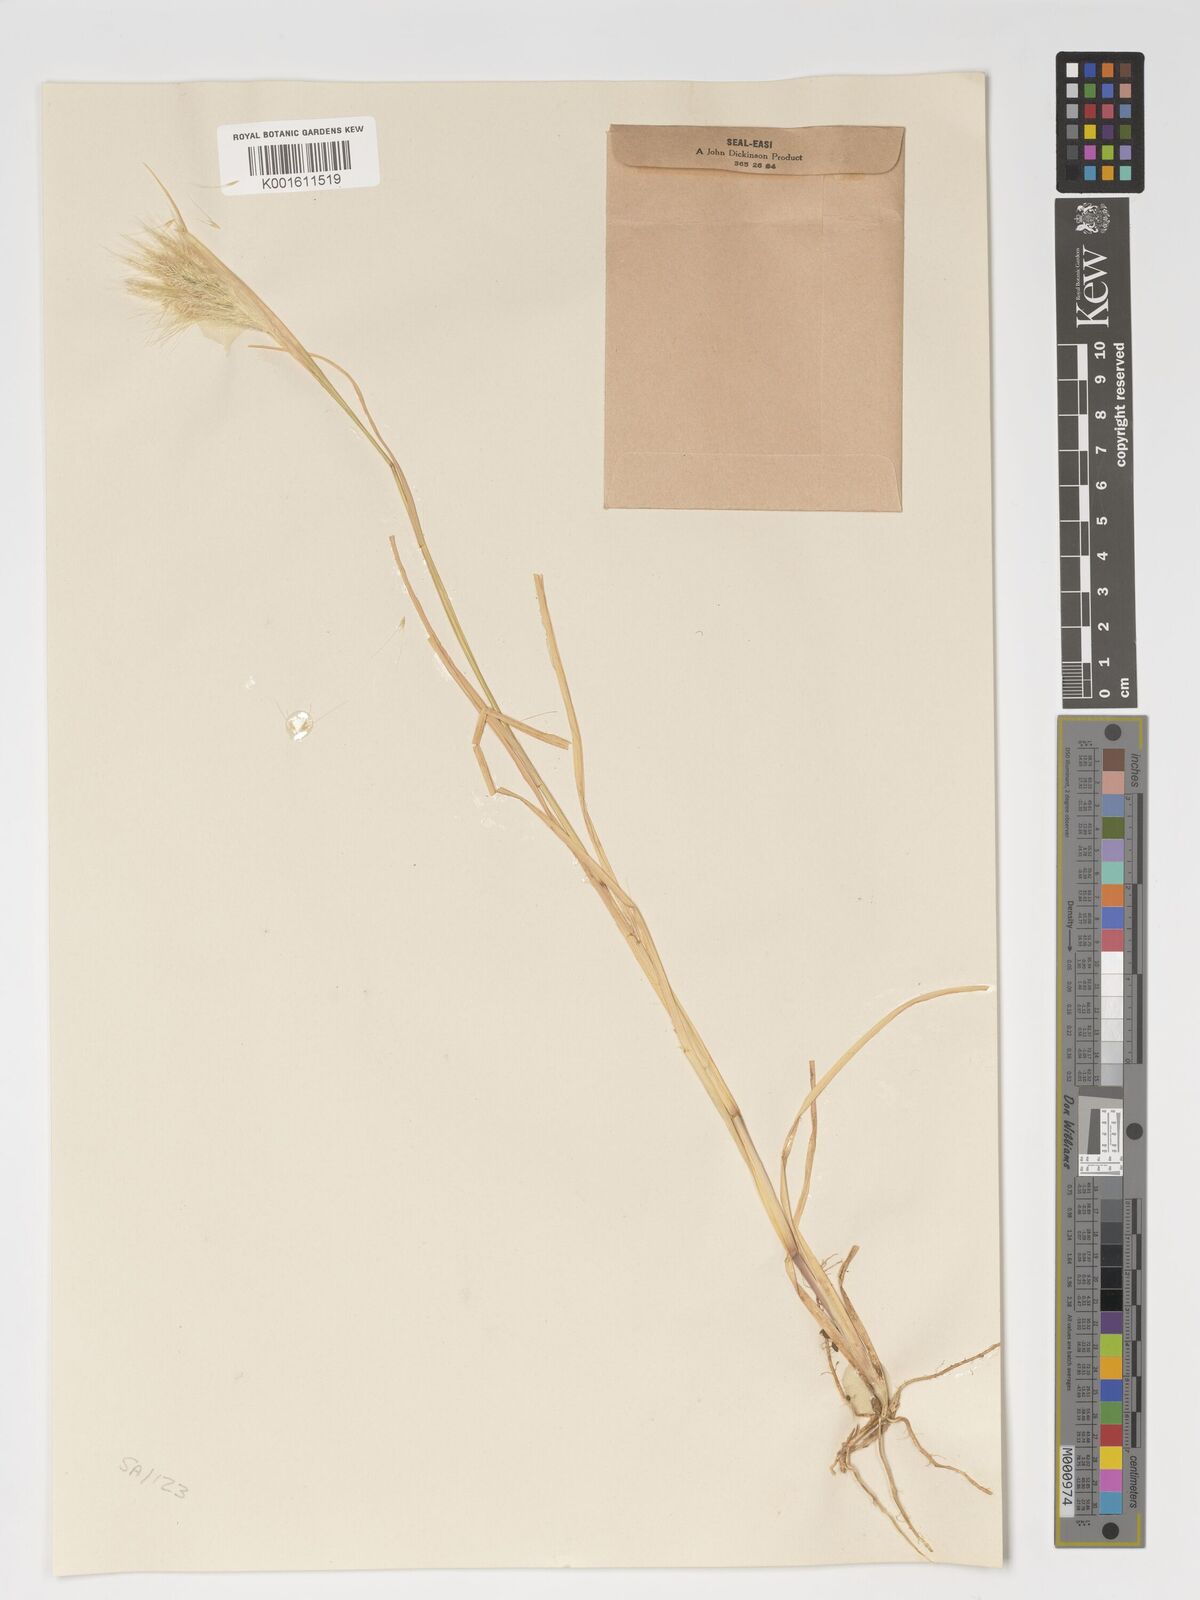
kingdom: Plantae
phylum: Tracheophyta
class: Liliopsida
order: Poales
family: Poaceae
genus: Chloris
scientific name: Chloris virgata
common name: Feathery rhodes-grass
